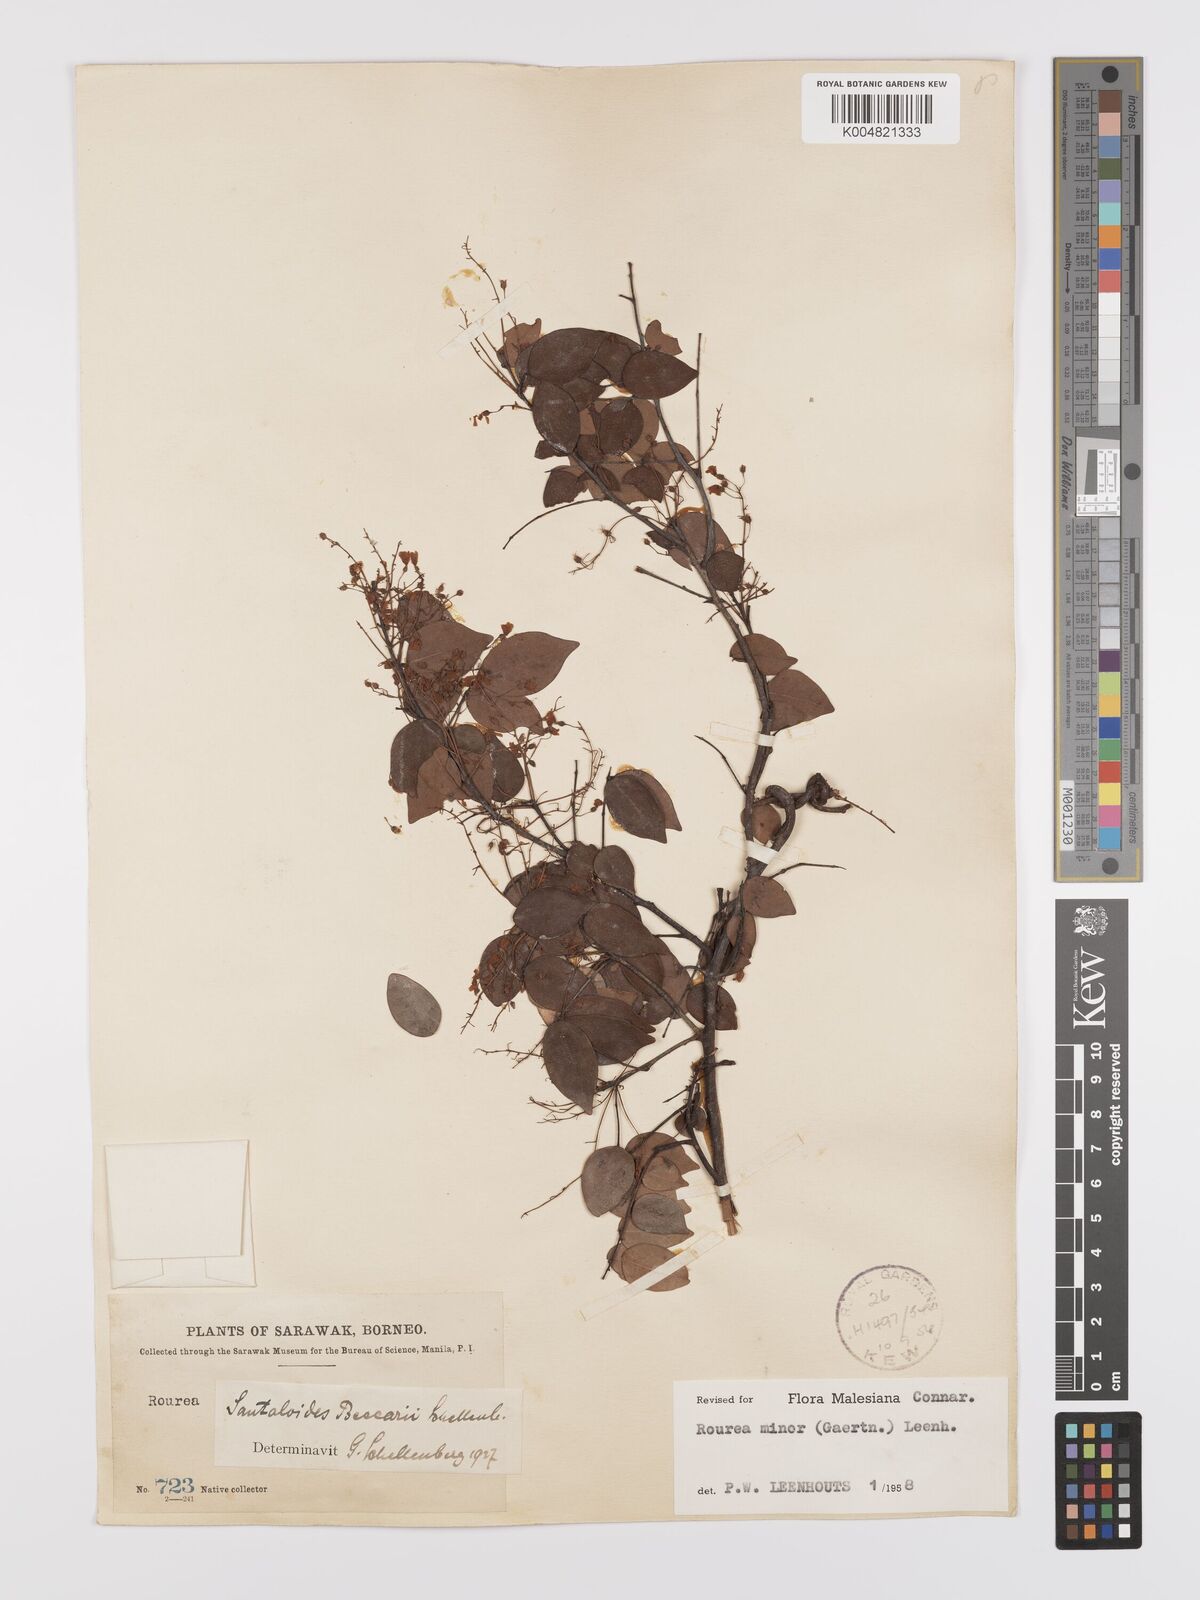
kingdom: Plantae
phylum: Tracheophyta
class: Magnoliopsida
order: Oxalidales
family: Connaraceae
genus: Rourea
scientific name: Rourea minor
